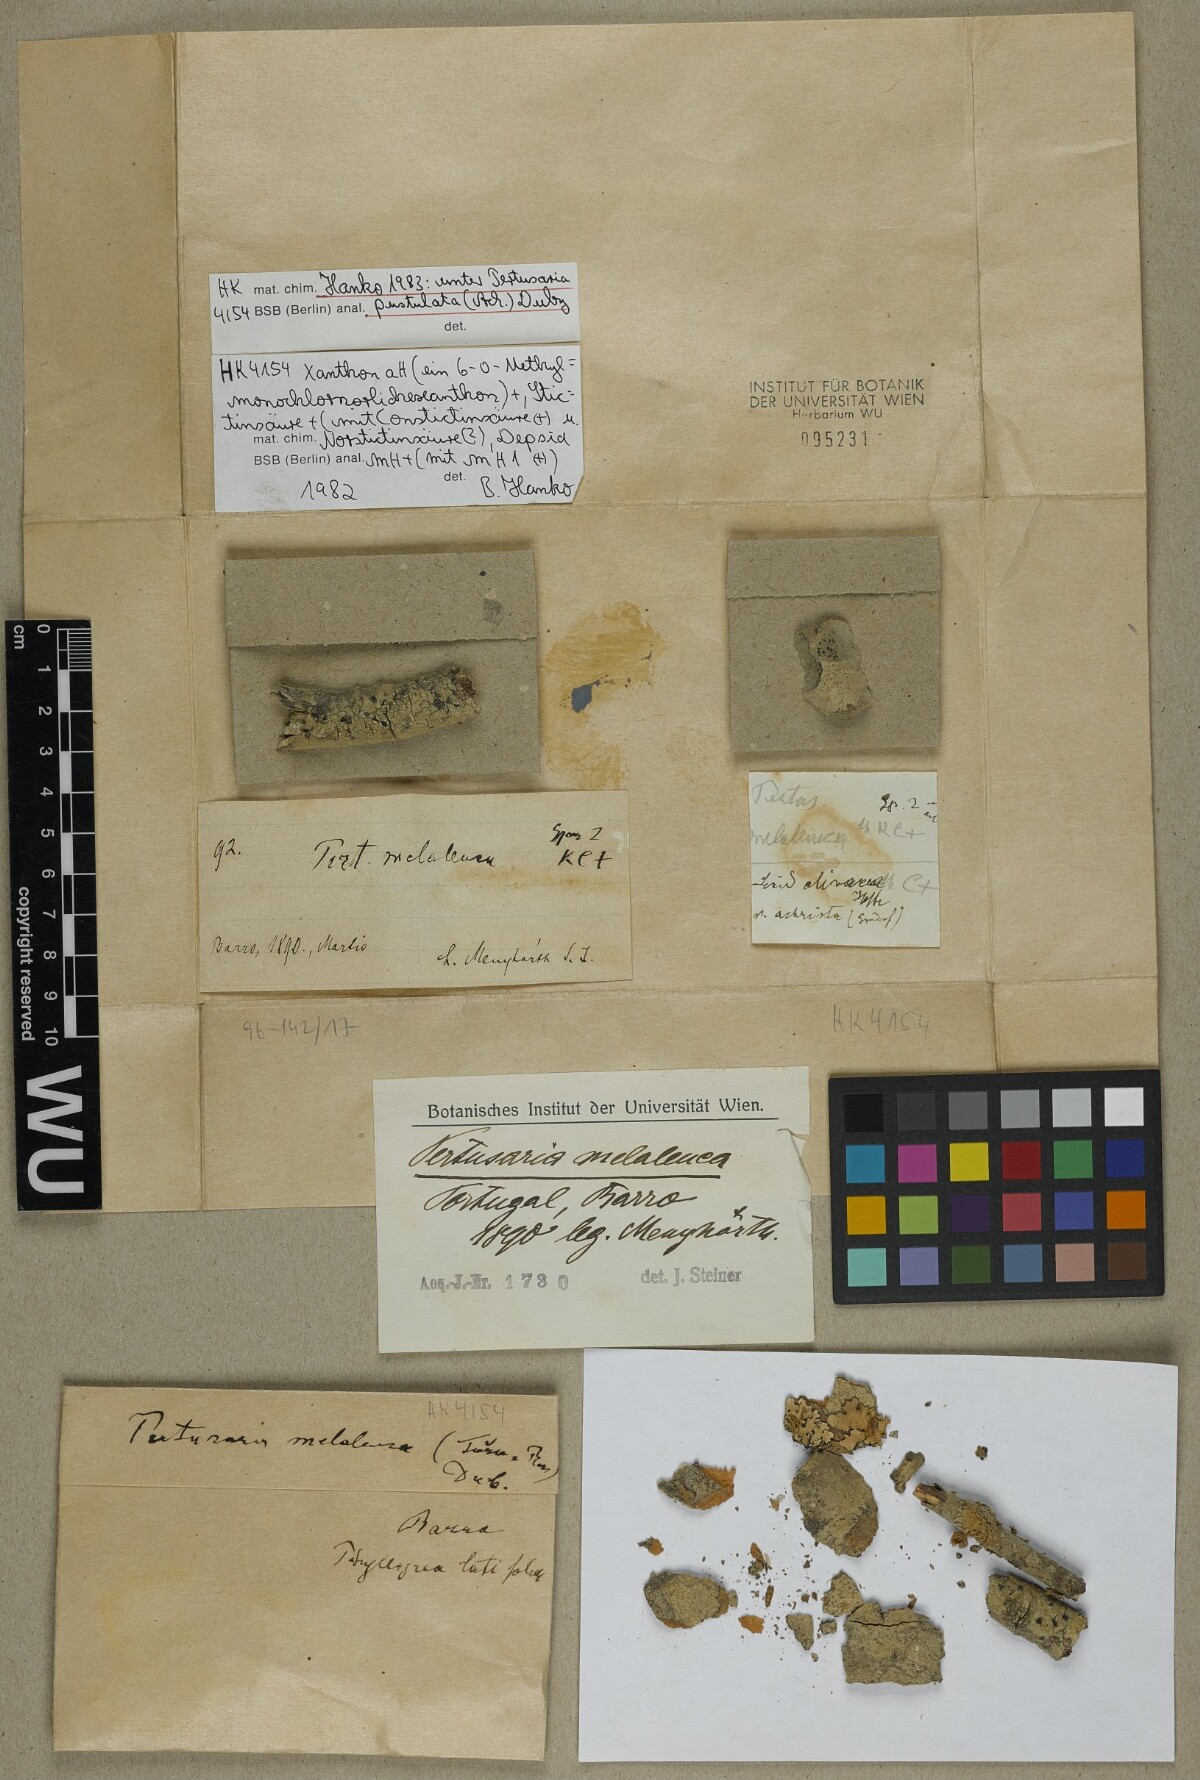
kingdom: Fungi
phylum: Ascomycota
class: Lecanoromycetes
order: Pertusariales
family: Pertusariaceae
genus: Pertusaria
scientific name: Pertusaria pustulata
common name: Branch bumps
